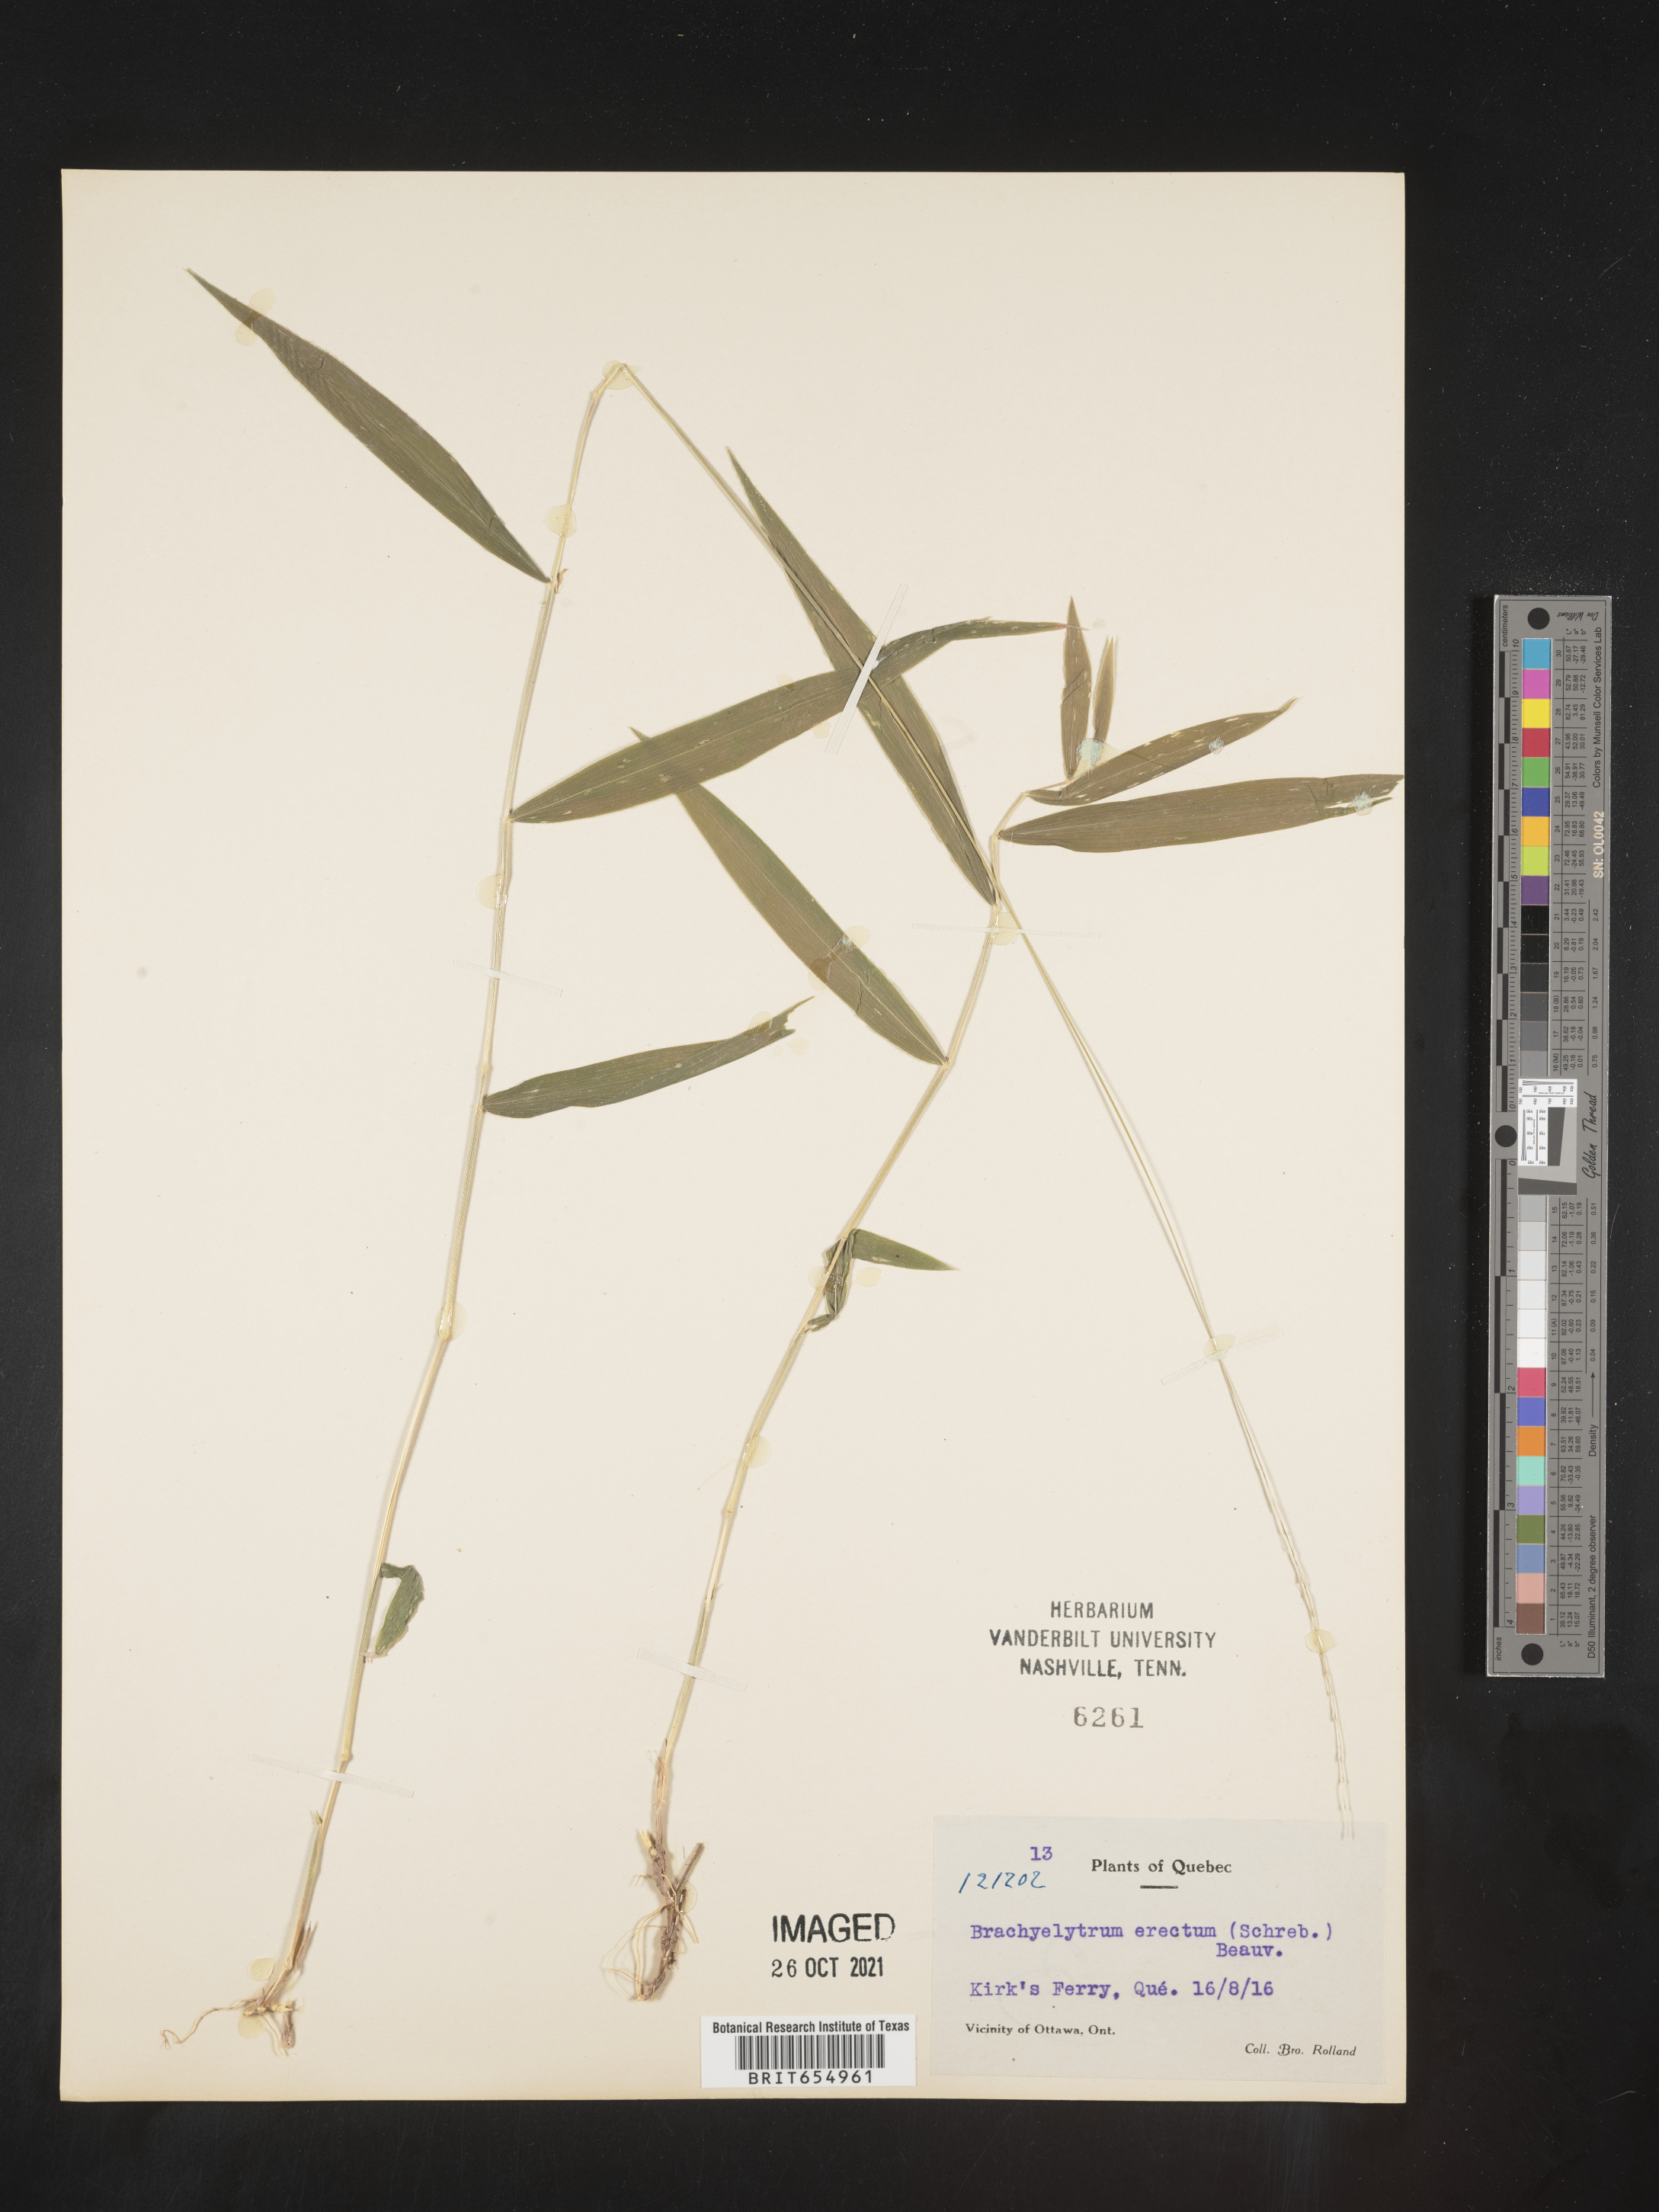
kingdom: Plantae
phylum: Tracheophyta
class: Liliopsida
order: Poales
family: Poaceae
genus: Brachyelytrum
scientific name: Brachyelytrum
